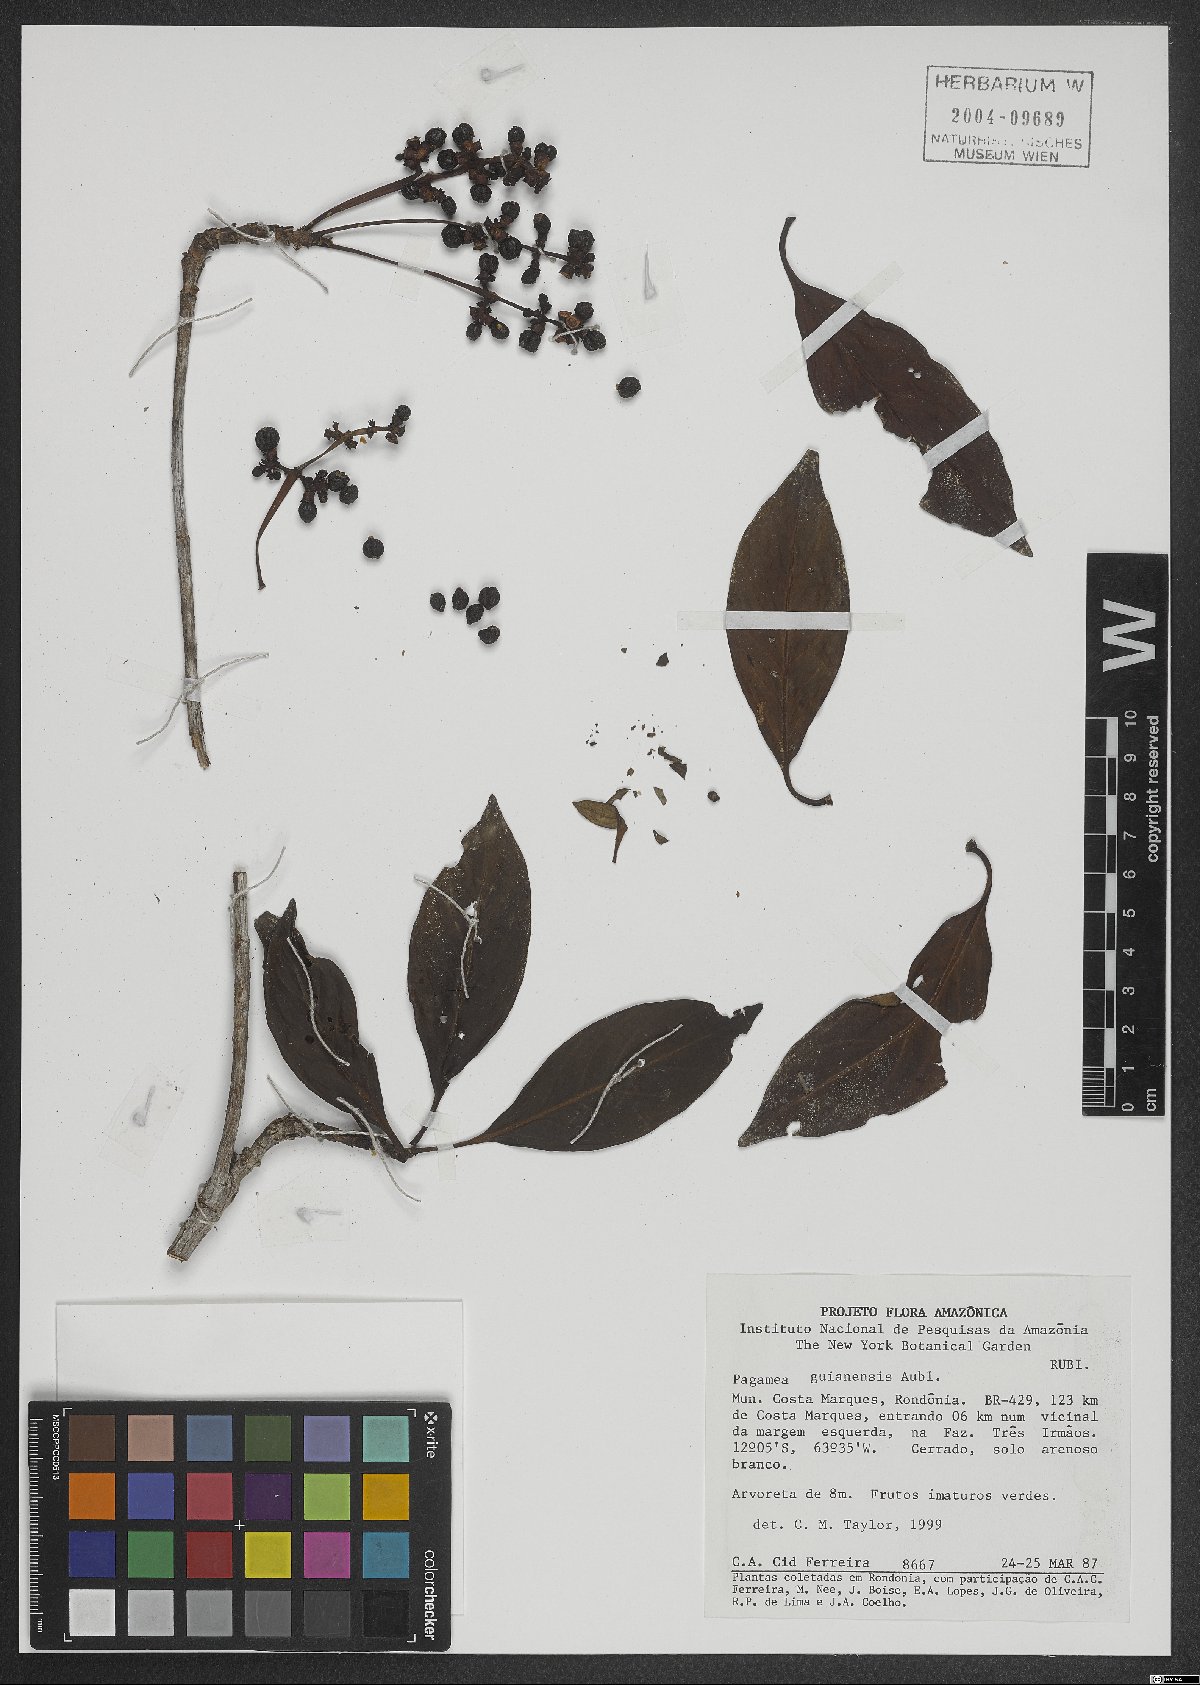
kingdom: Plantae
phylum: Tracheophyta
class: Magnoliopsida
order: Gentianales
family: Rubiaceae
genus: Pagamea
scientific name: Pagamea guianensis
